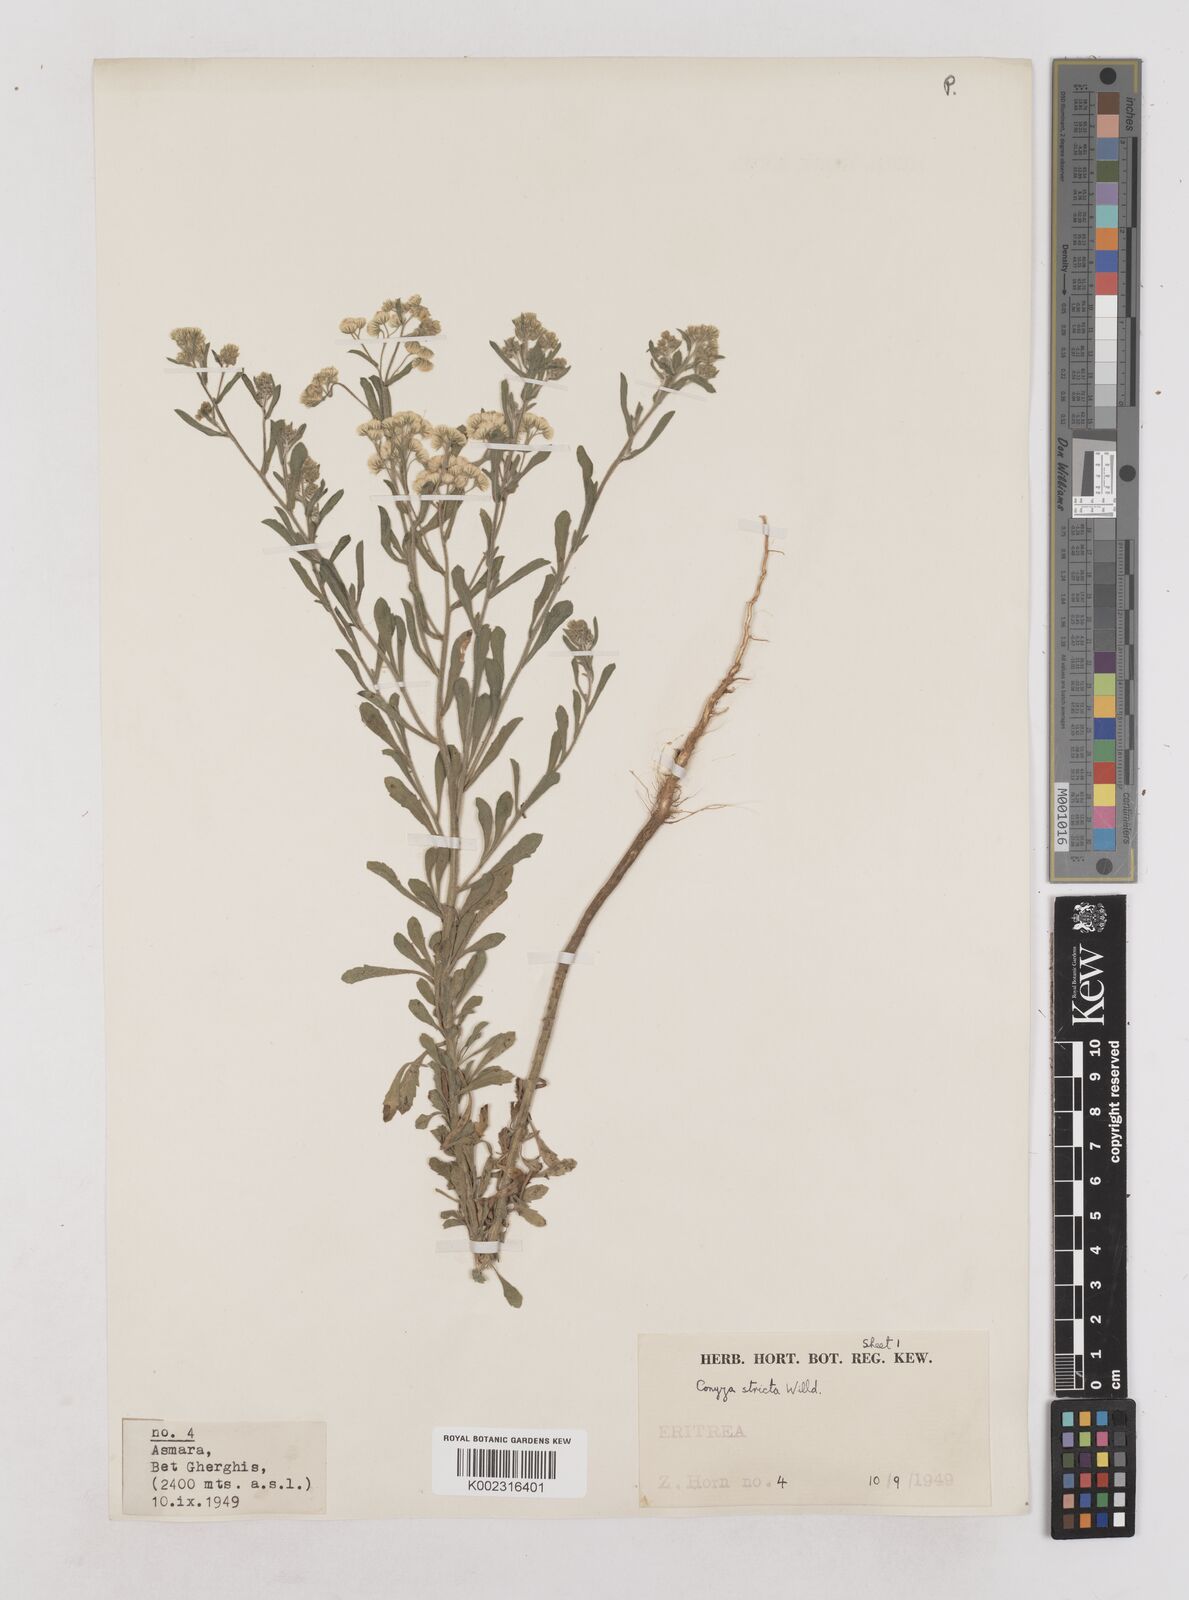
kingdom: Plantae
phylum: Tracheophyta
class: Magnoliopsida
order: Asterales
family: Asteraceae
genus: Nidorella
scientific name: Nidorella triloba
